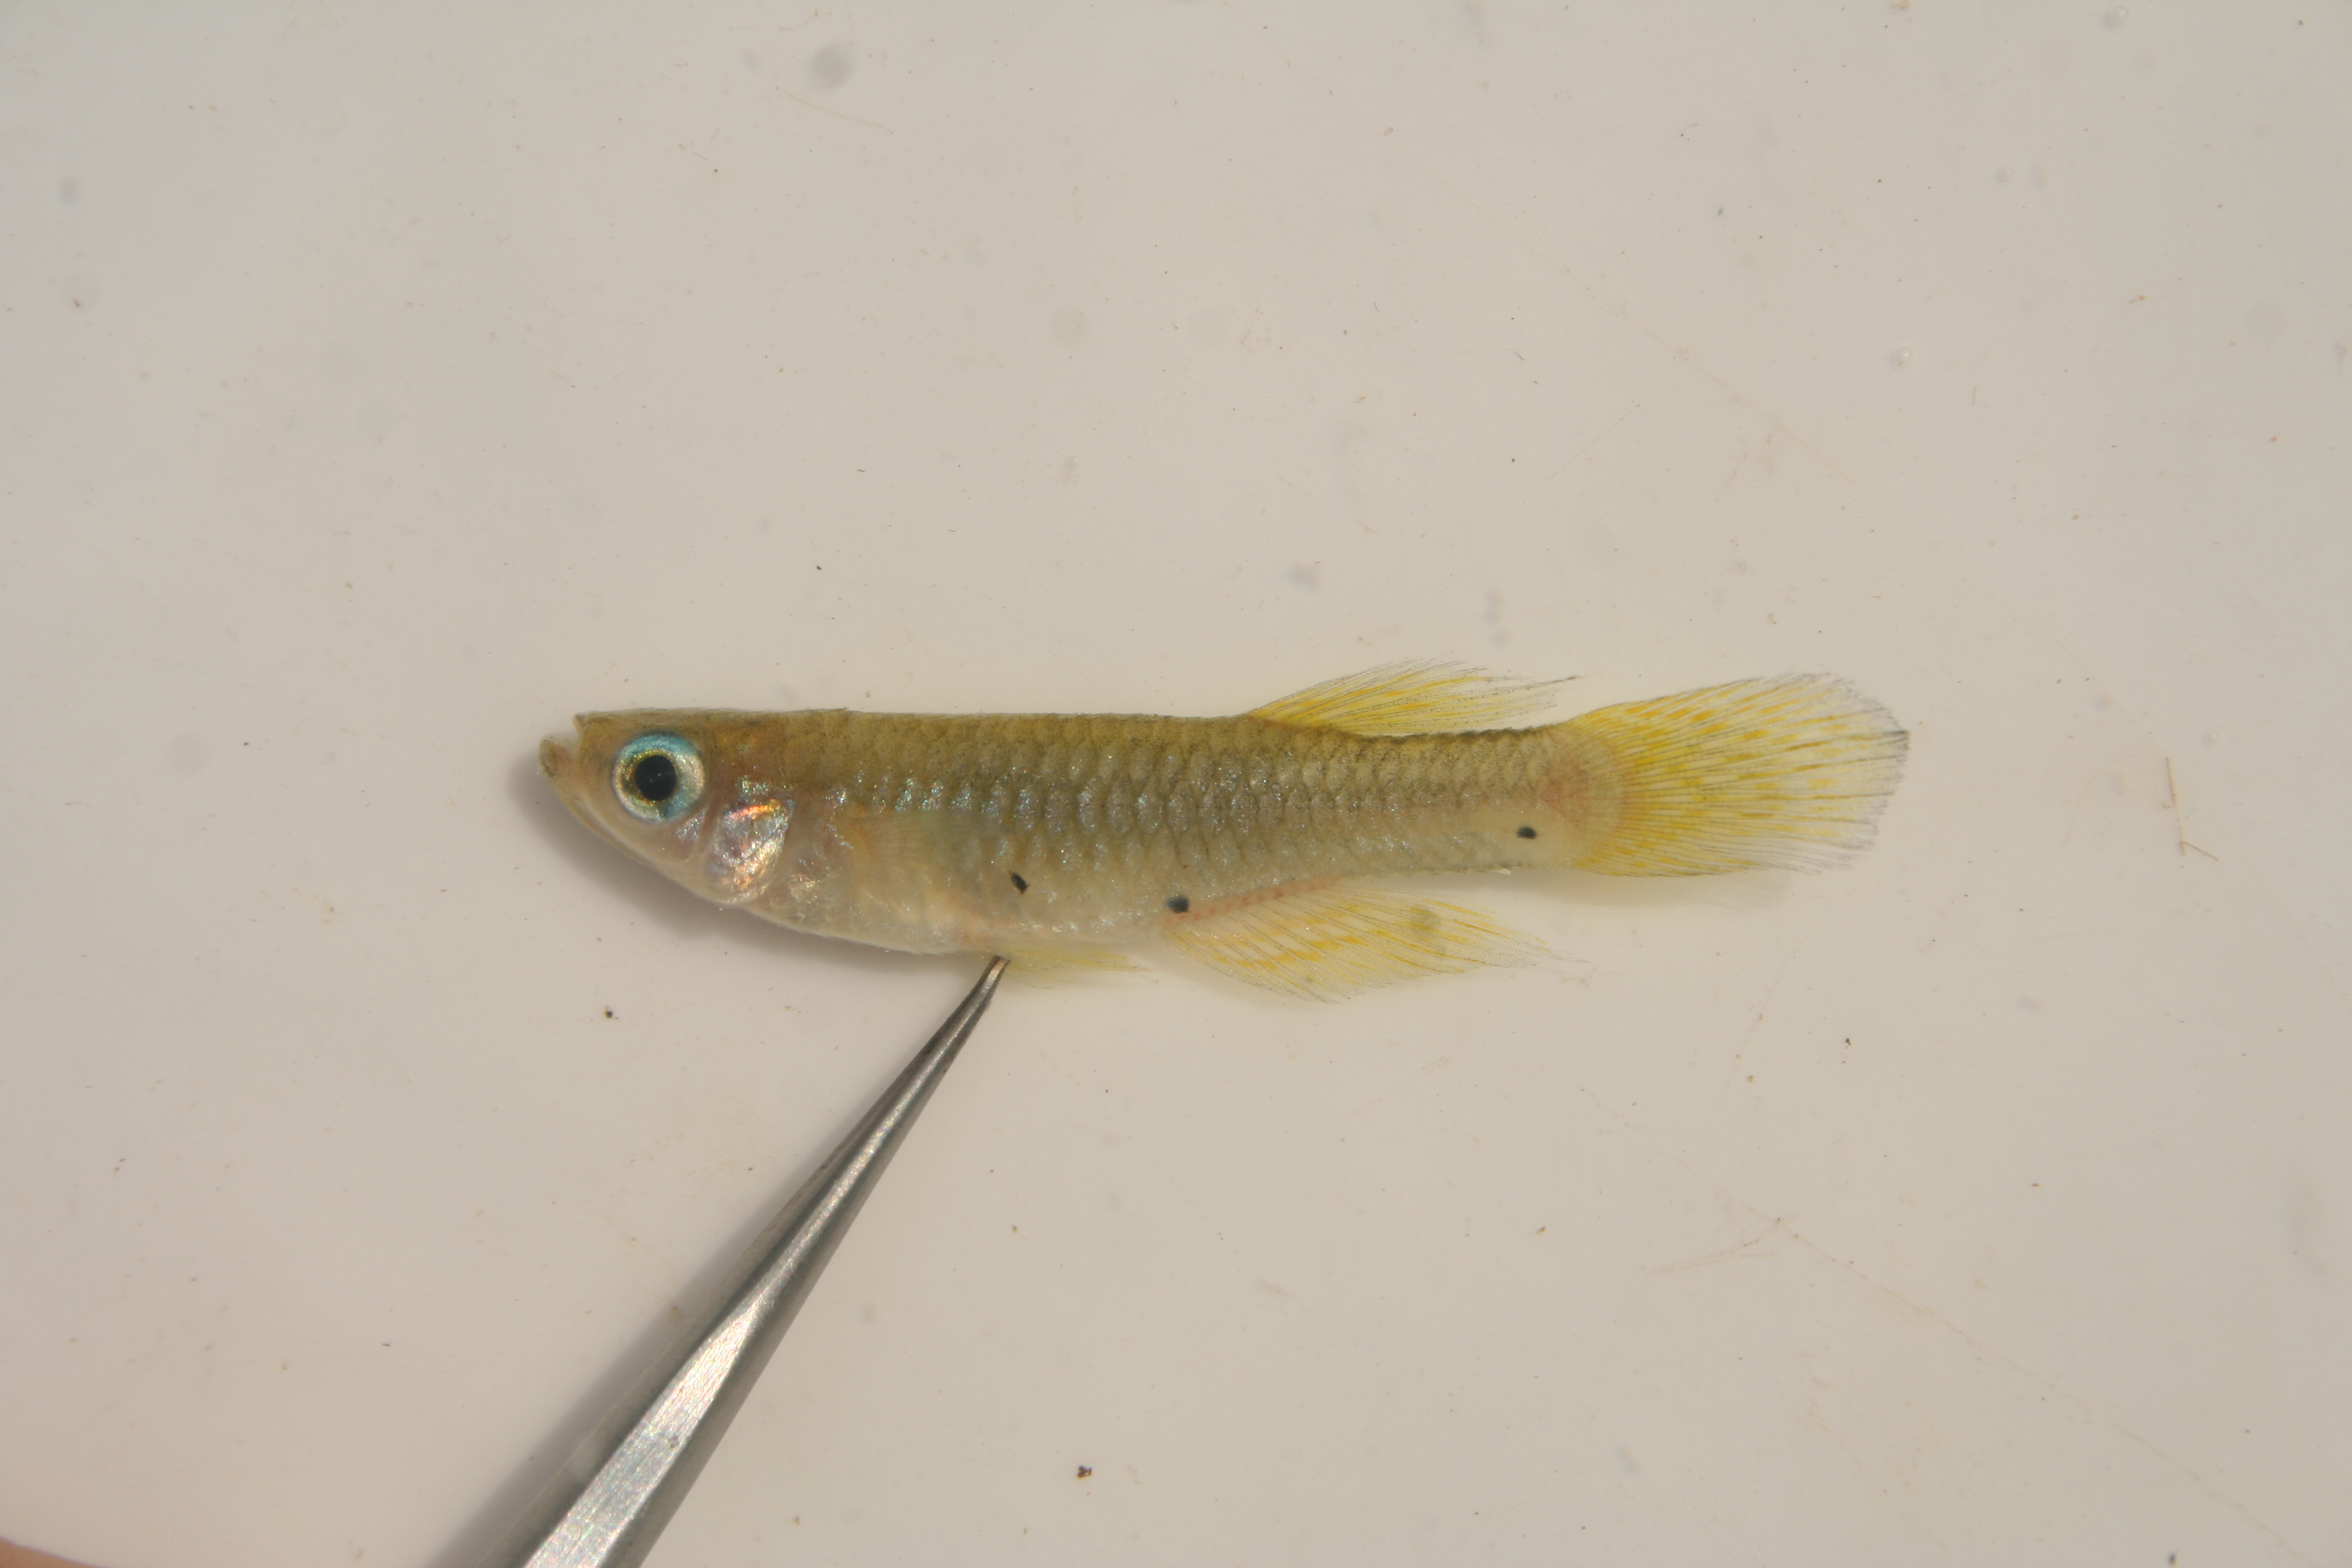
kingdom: Animalia
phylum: Chordata
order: Cyprinodontiformes
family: Poeciliidae
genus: Lacustricola
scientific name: Lacustricola
